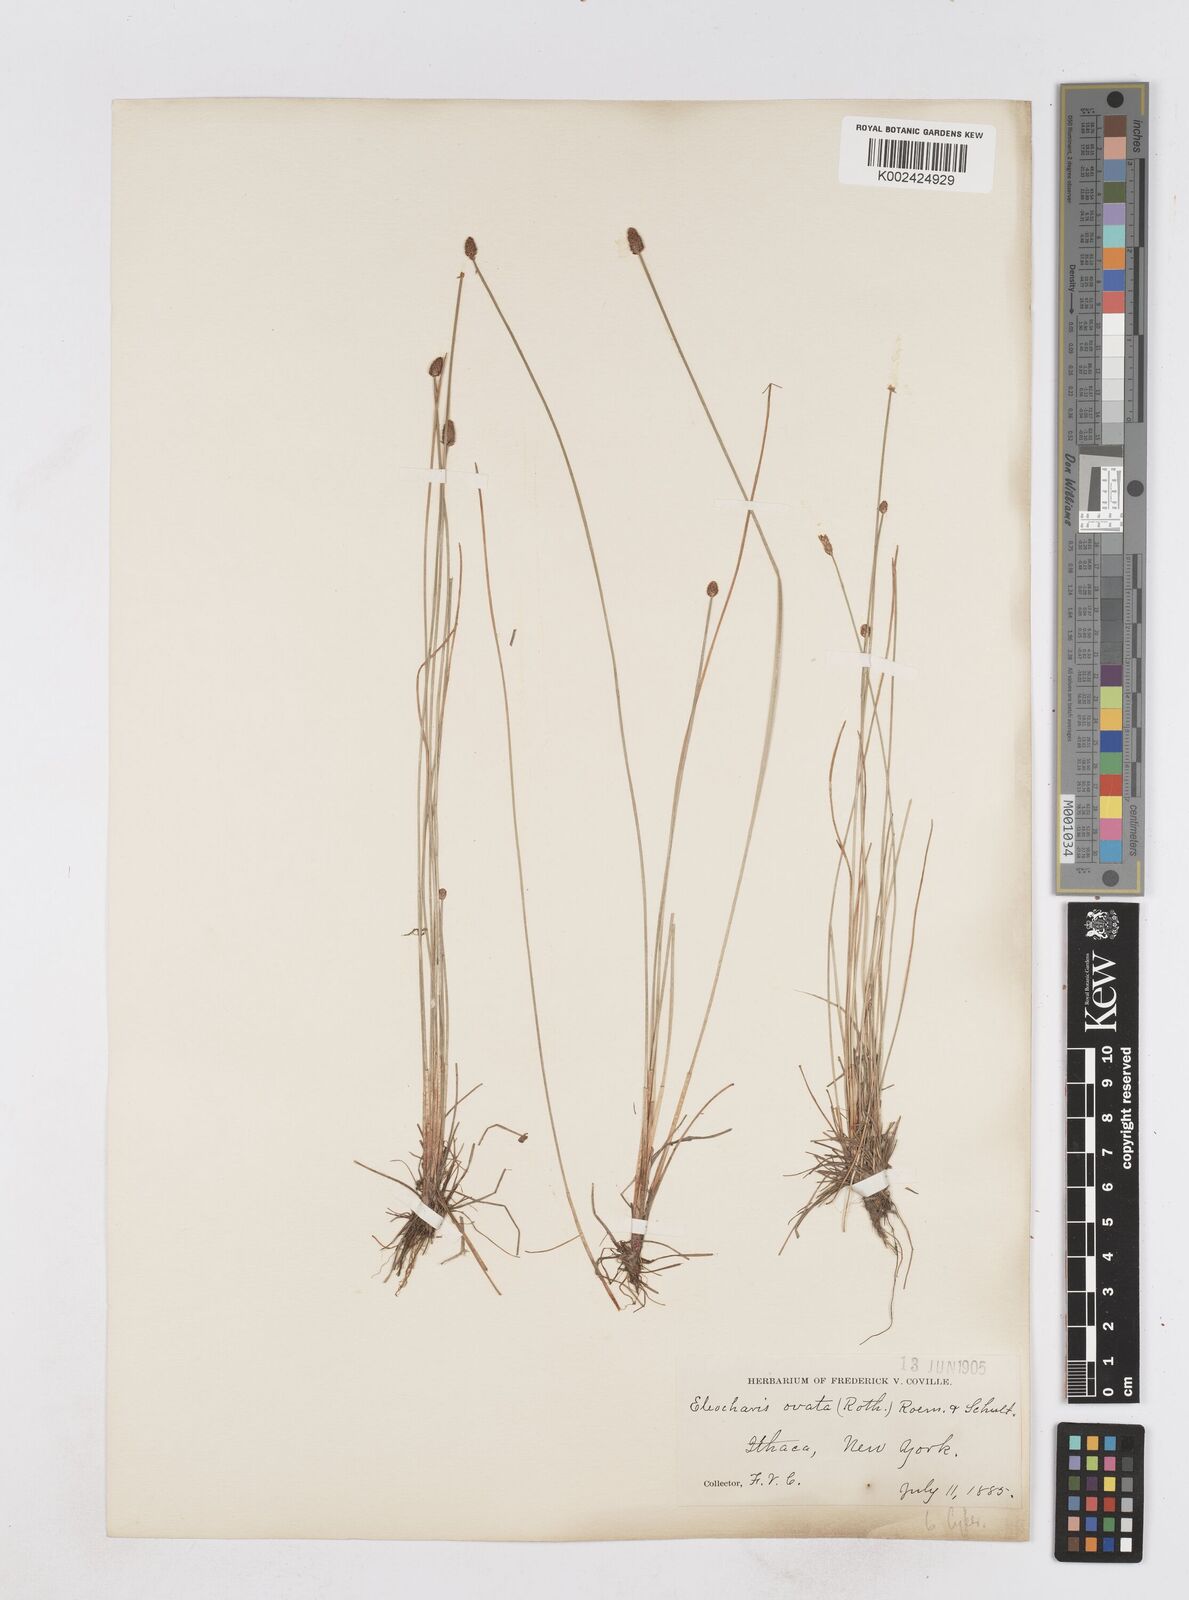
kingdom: Plantae
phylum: Tracheophyta
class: Liliopsida
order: Poales
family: Cyperaceae
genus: Eleocharis
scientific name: Eleocharis ovata
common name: Oval spike-rush
